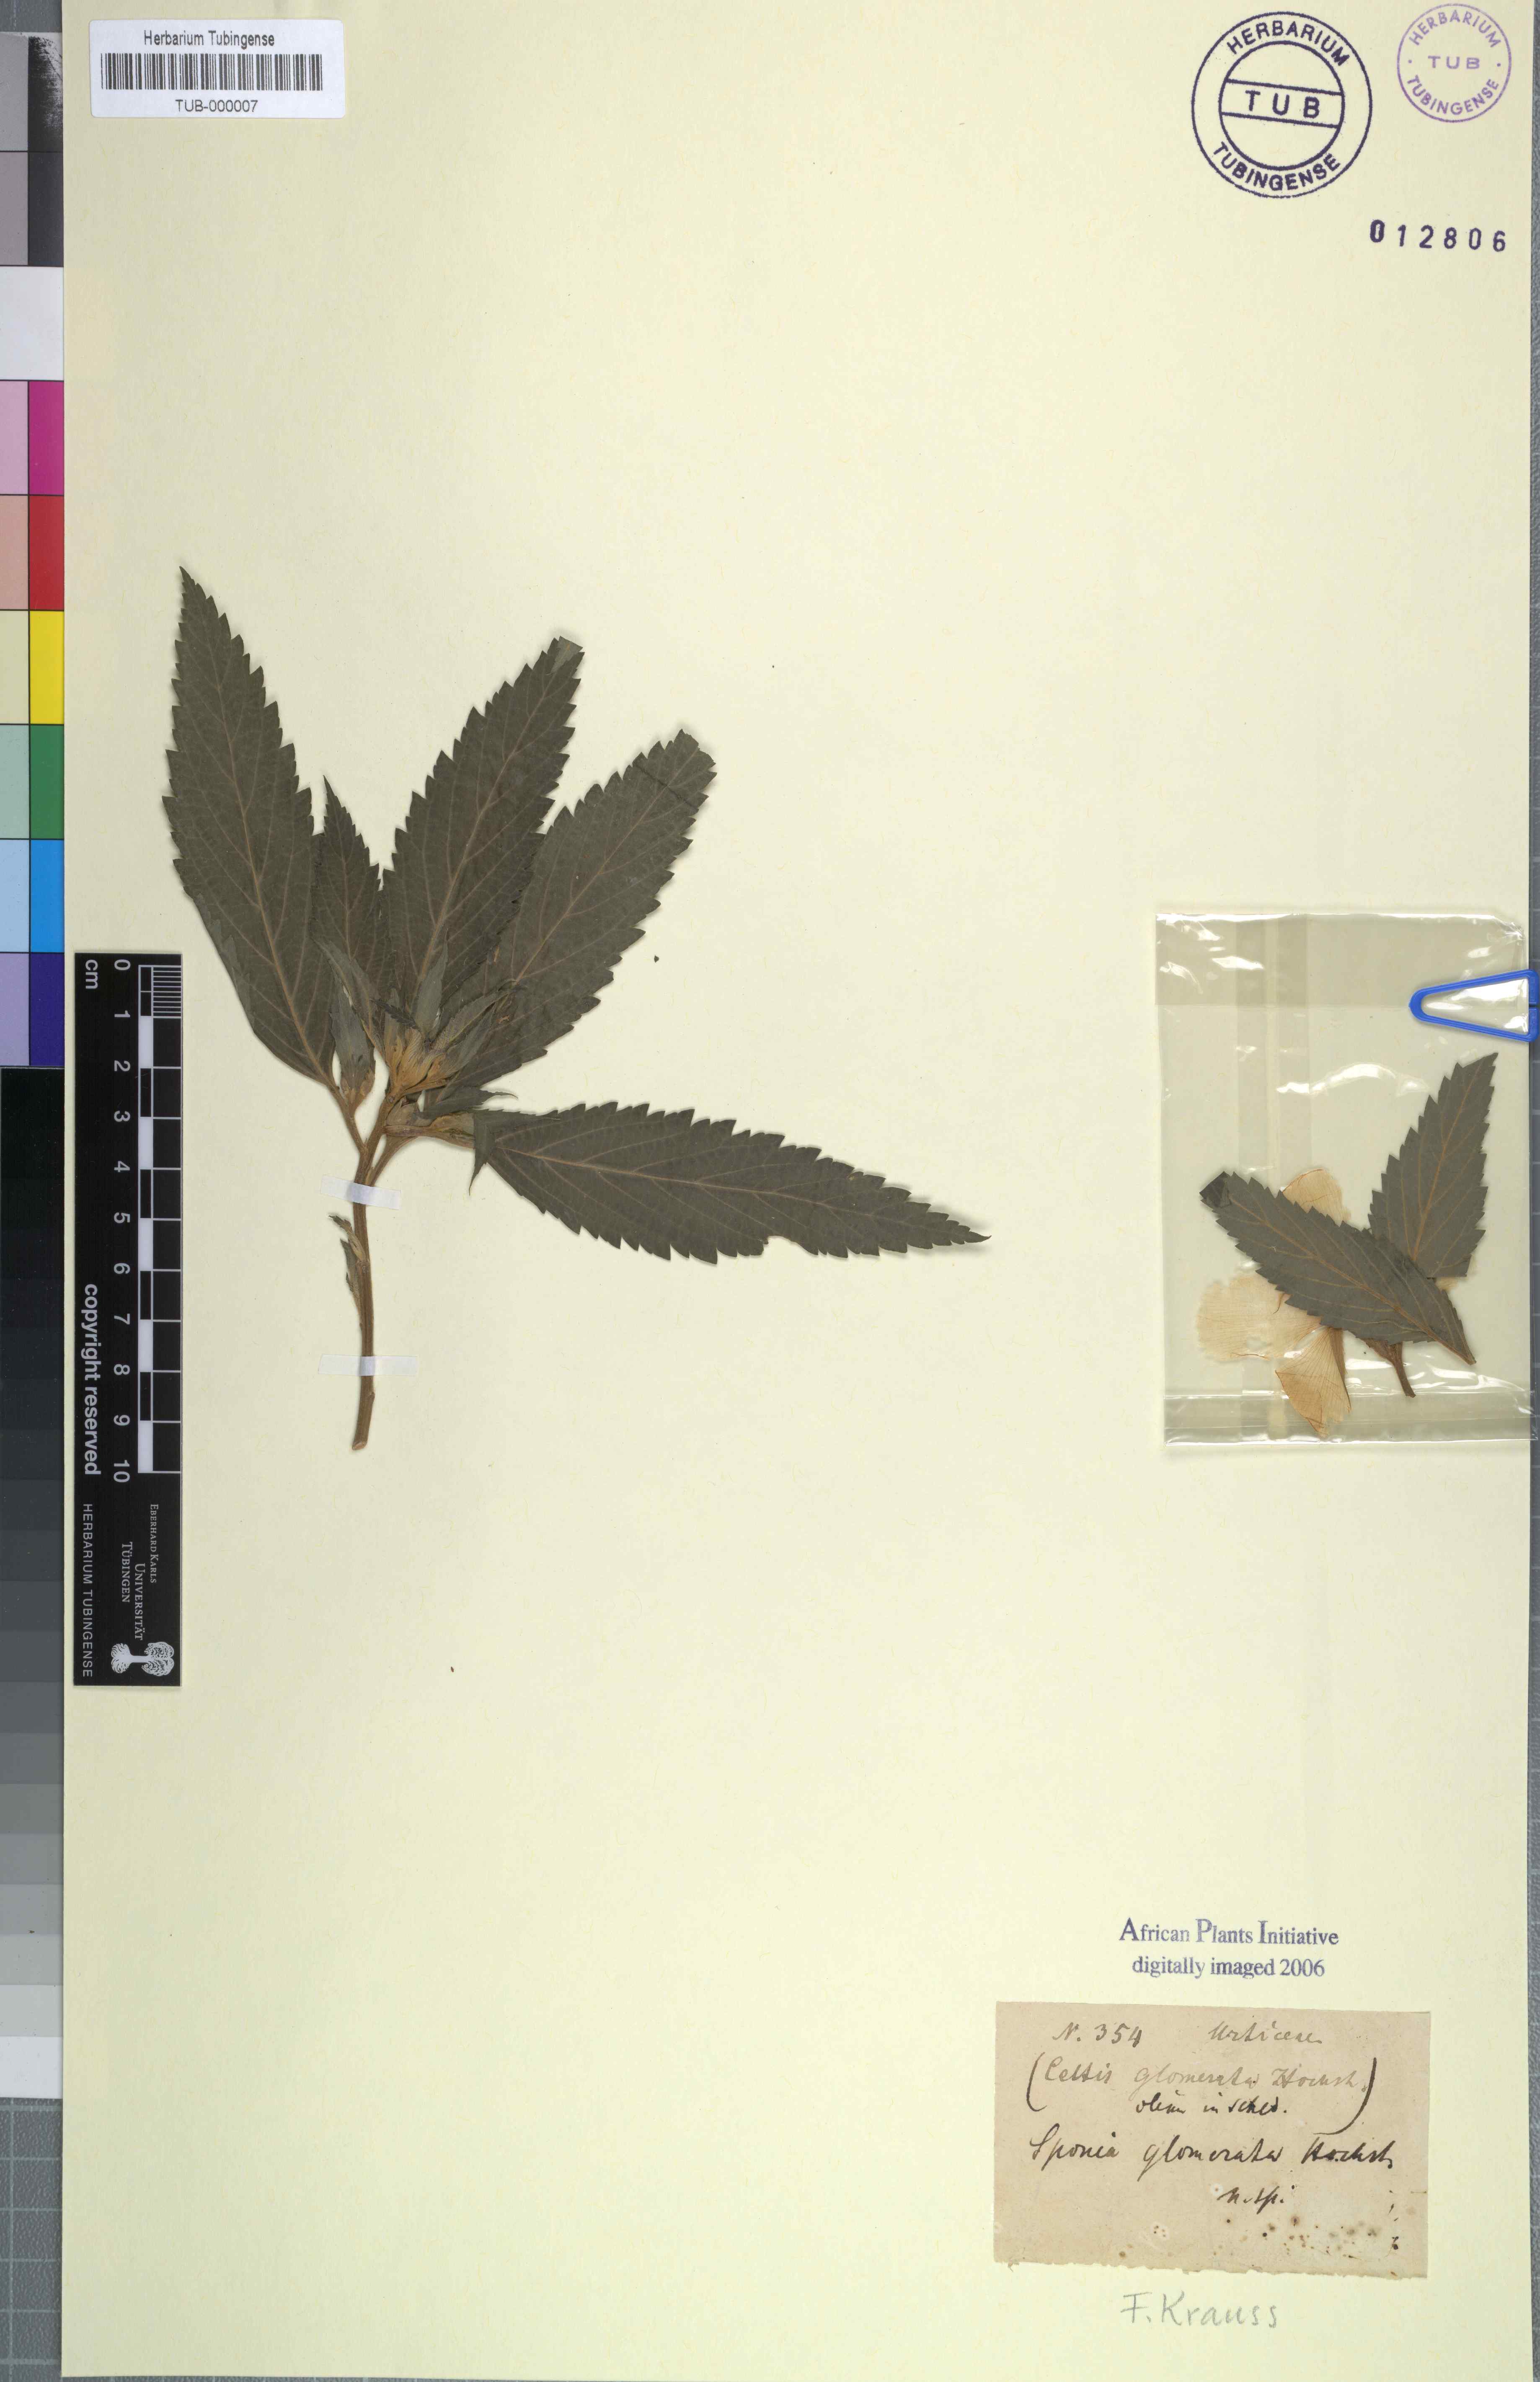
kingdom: Plantae
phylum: Tracheophyta
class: Magnoliopsida
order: Rosales
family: Cannabaceae
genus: Trema
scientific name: Trema orientale
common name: Indian charcoal tree
